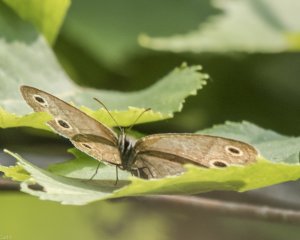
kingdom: Animalia
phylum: Arthropoda
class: Insecta
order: Lepidoptera
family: Nymphalidae
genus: Euptychia
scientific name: Euptychia cymela
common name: Little Wood Satyr
